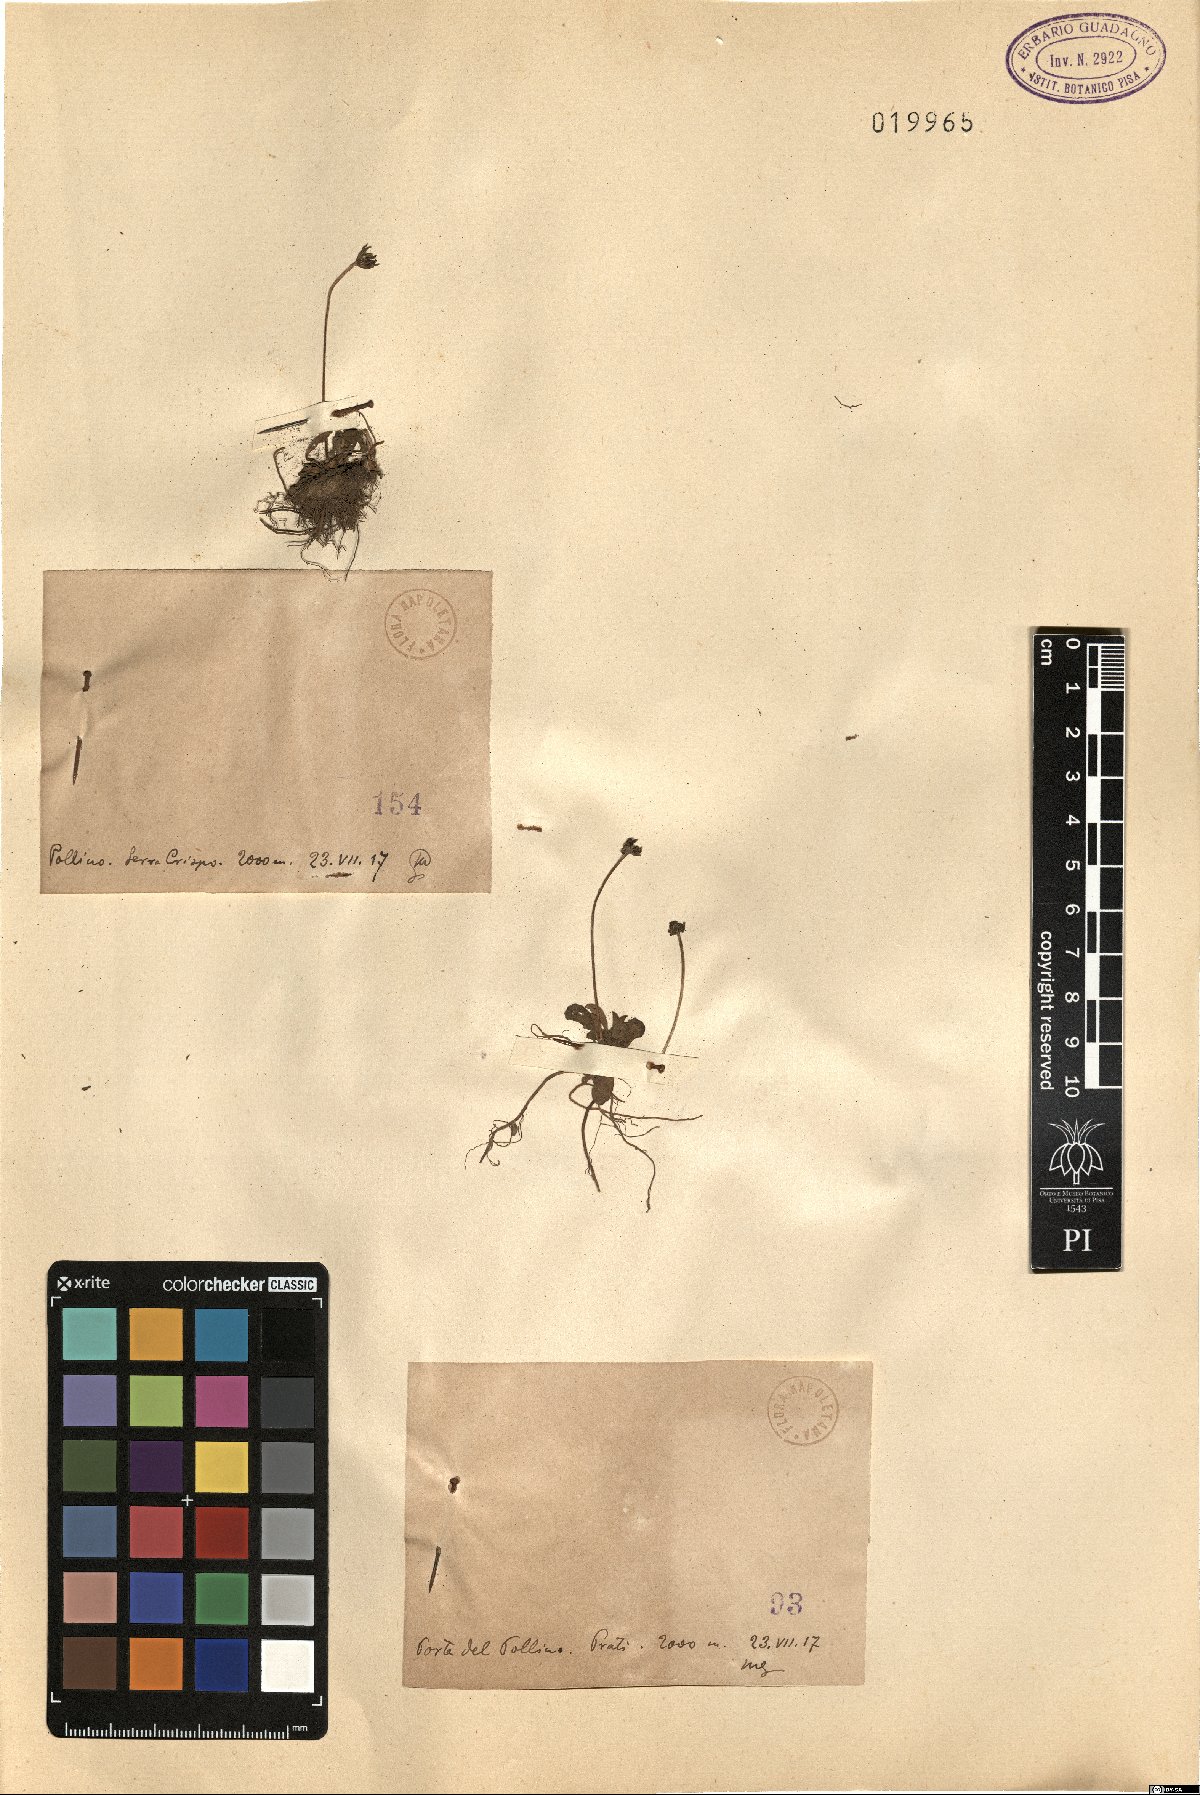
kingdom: Plantae
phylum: Tracheophyta
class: Magnoliopsida
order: Asterales
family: Asteraceae
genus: Hieracium
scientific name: Hieracium
